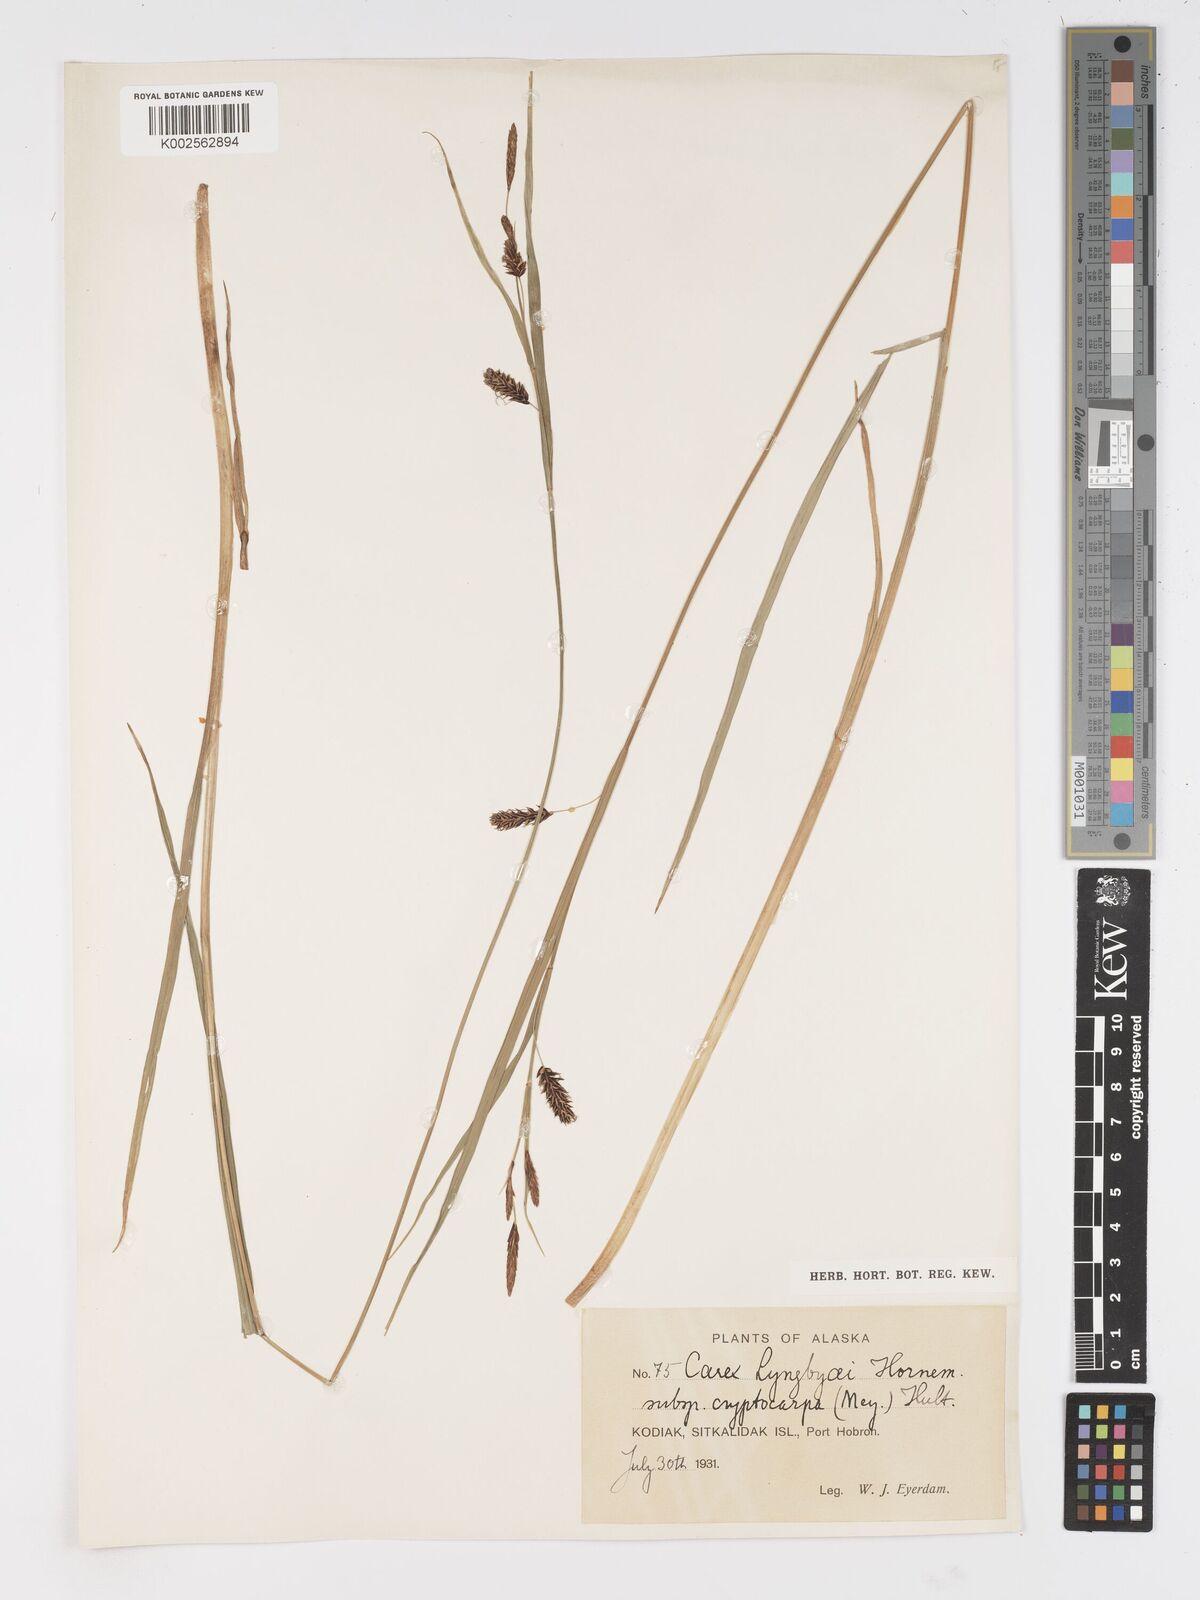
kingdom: Plantae
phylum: Tracheophyta
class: Liliopsida
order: Poales
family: Cyperaceae
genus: Carex
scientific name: Carex lyngbyei
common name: Lyngbye's sedge
